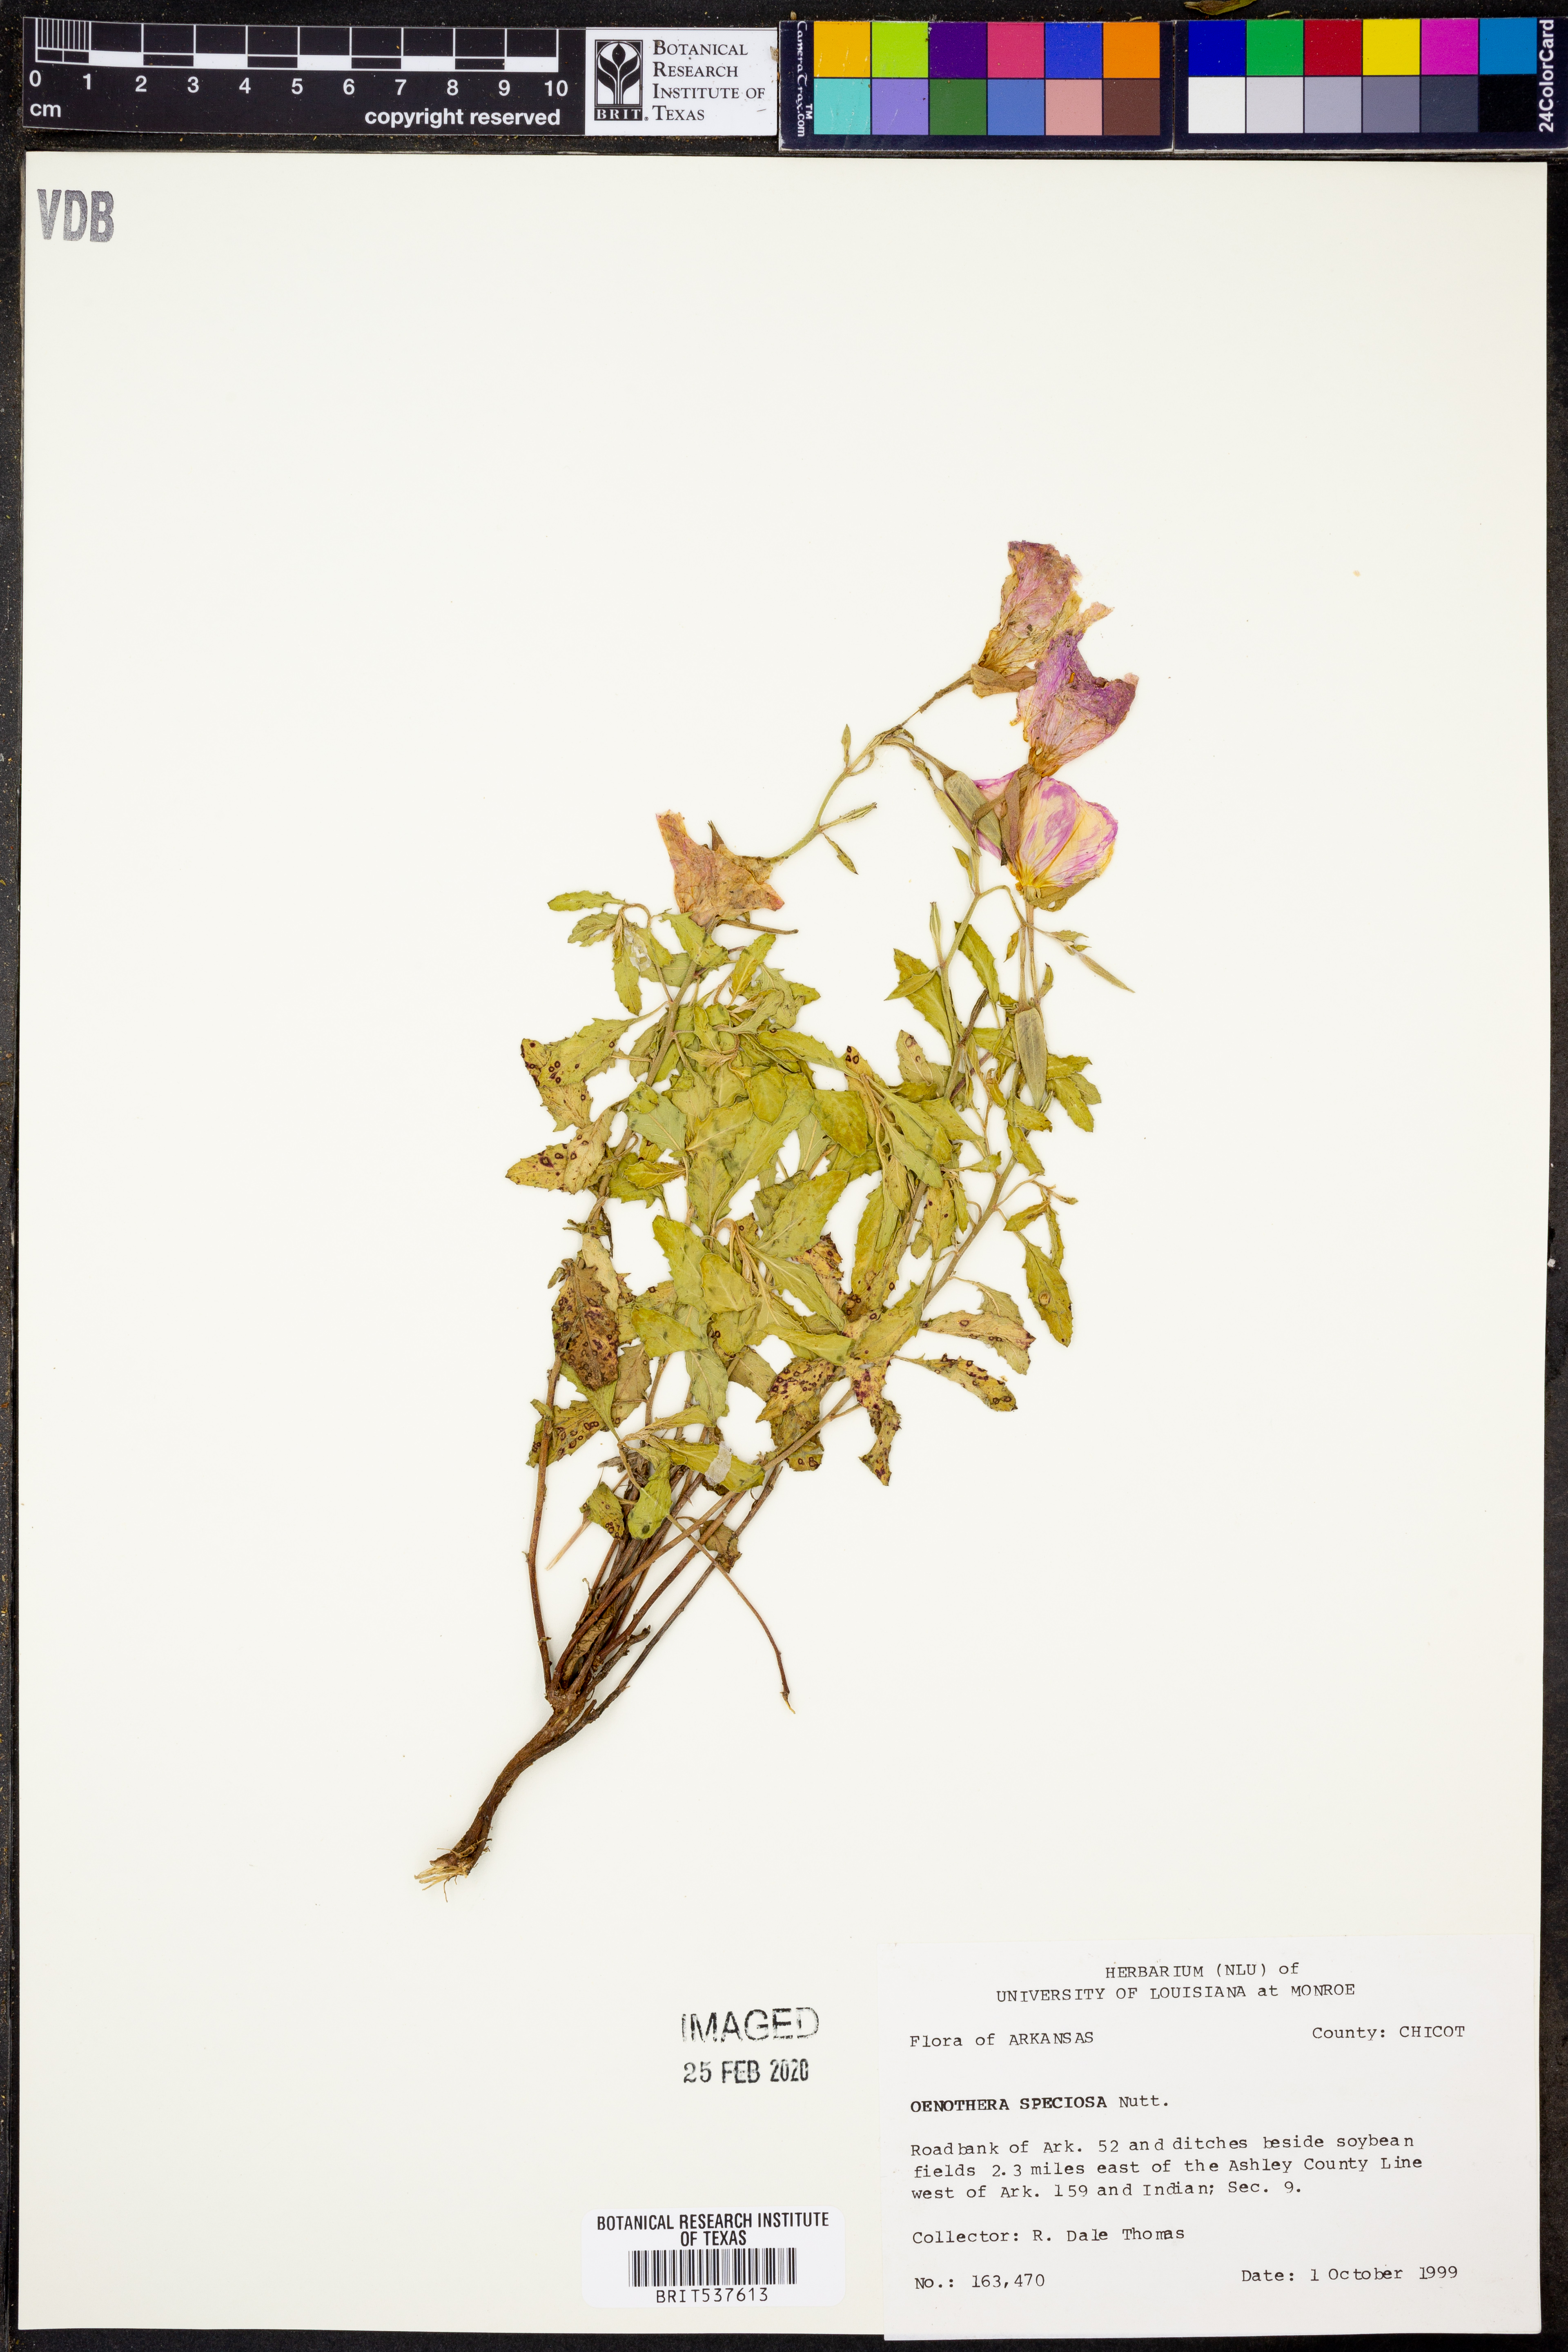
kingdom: Plantae
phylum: Tracheophyta
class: Magnoliopsida
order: Myrtales
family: Onagraceae
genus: Oenothera
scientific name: Oenothera speciosa
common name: White evening-primrose
